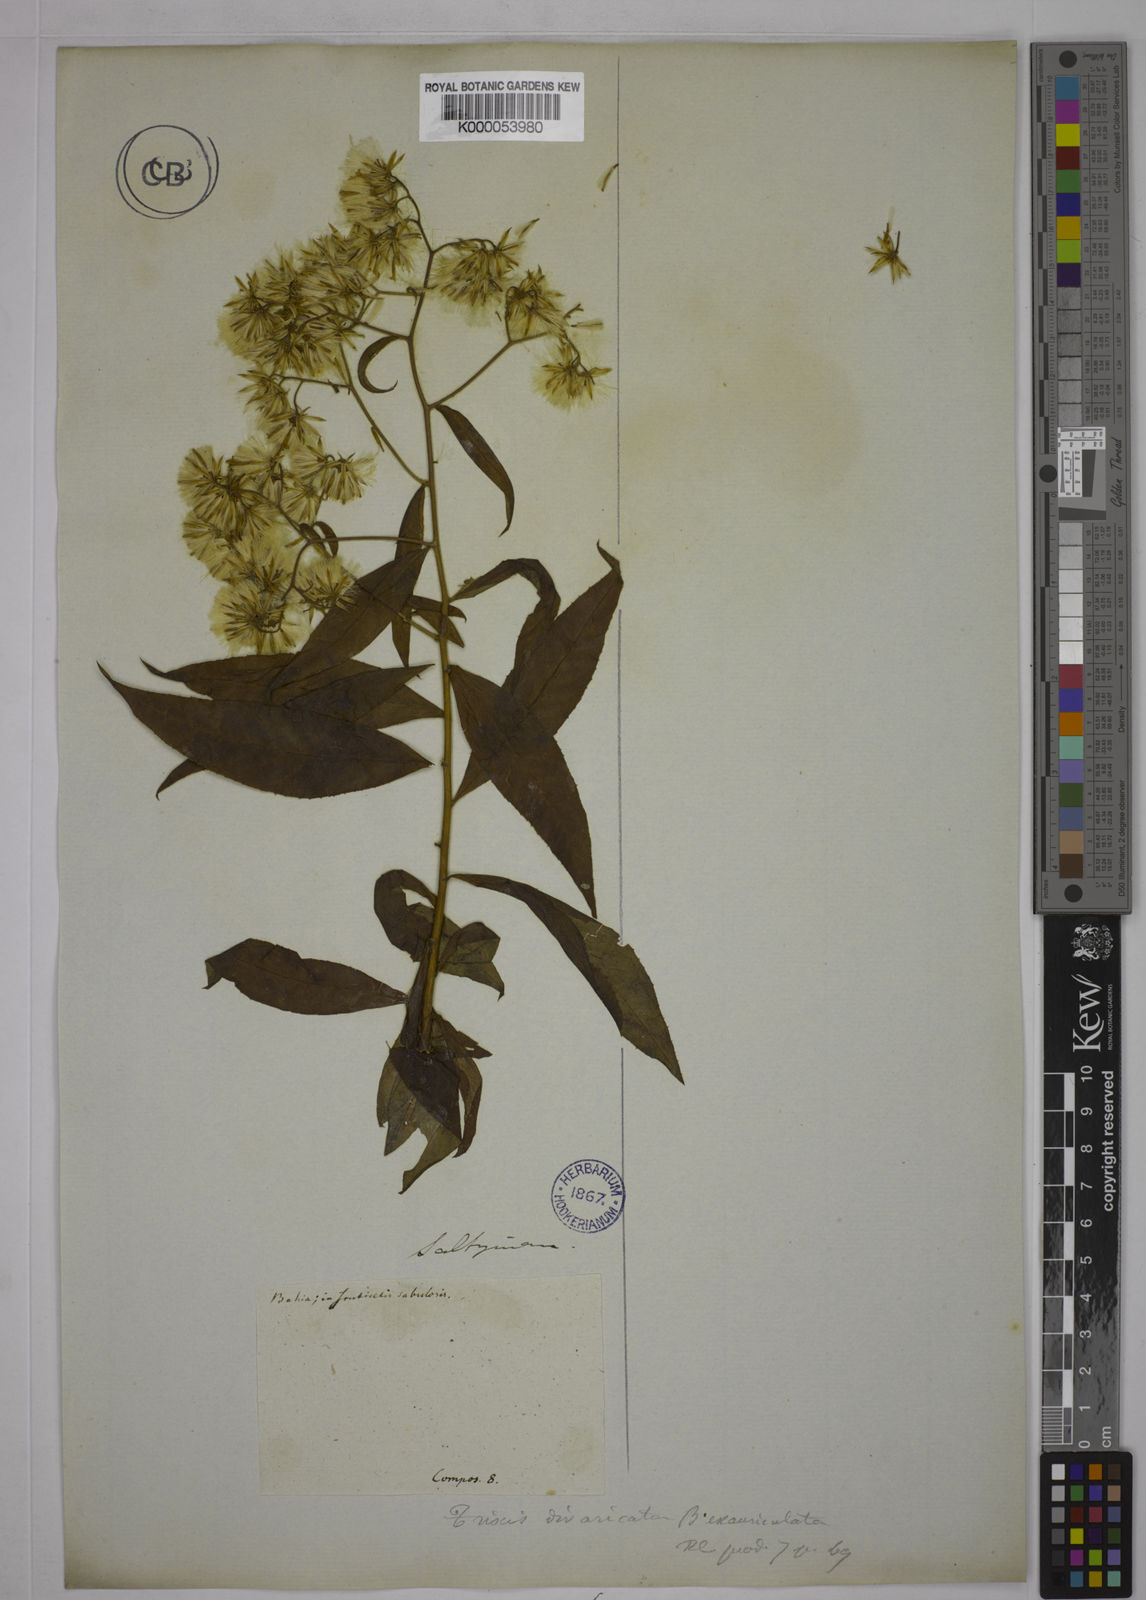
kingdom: Plantae
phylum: Tracheophyta
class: Magnoliopsida
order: Asterales
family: Asteraceae
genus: Trixis
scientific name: Trixis divaricata
